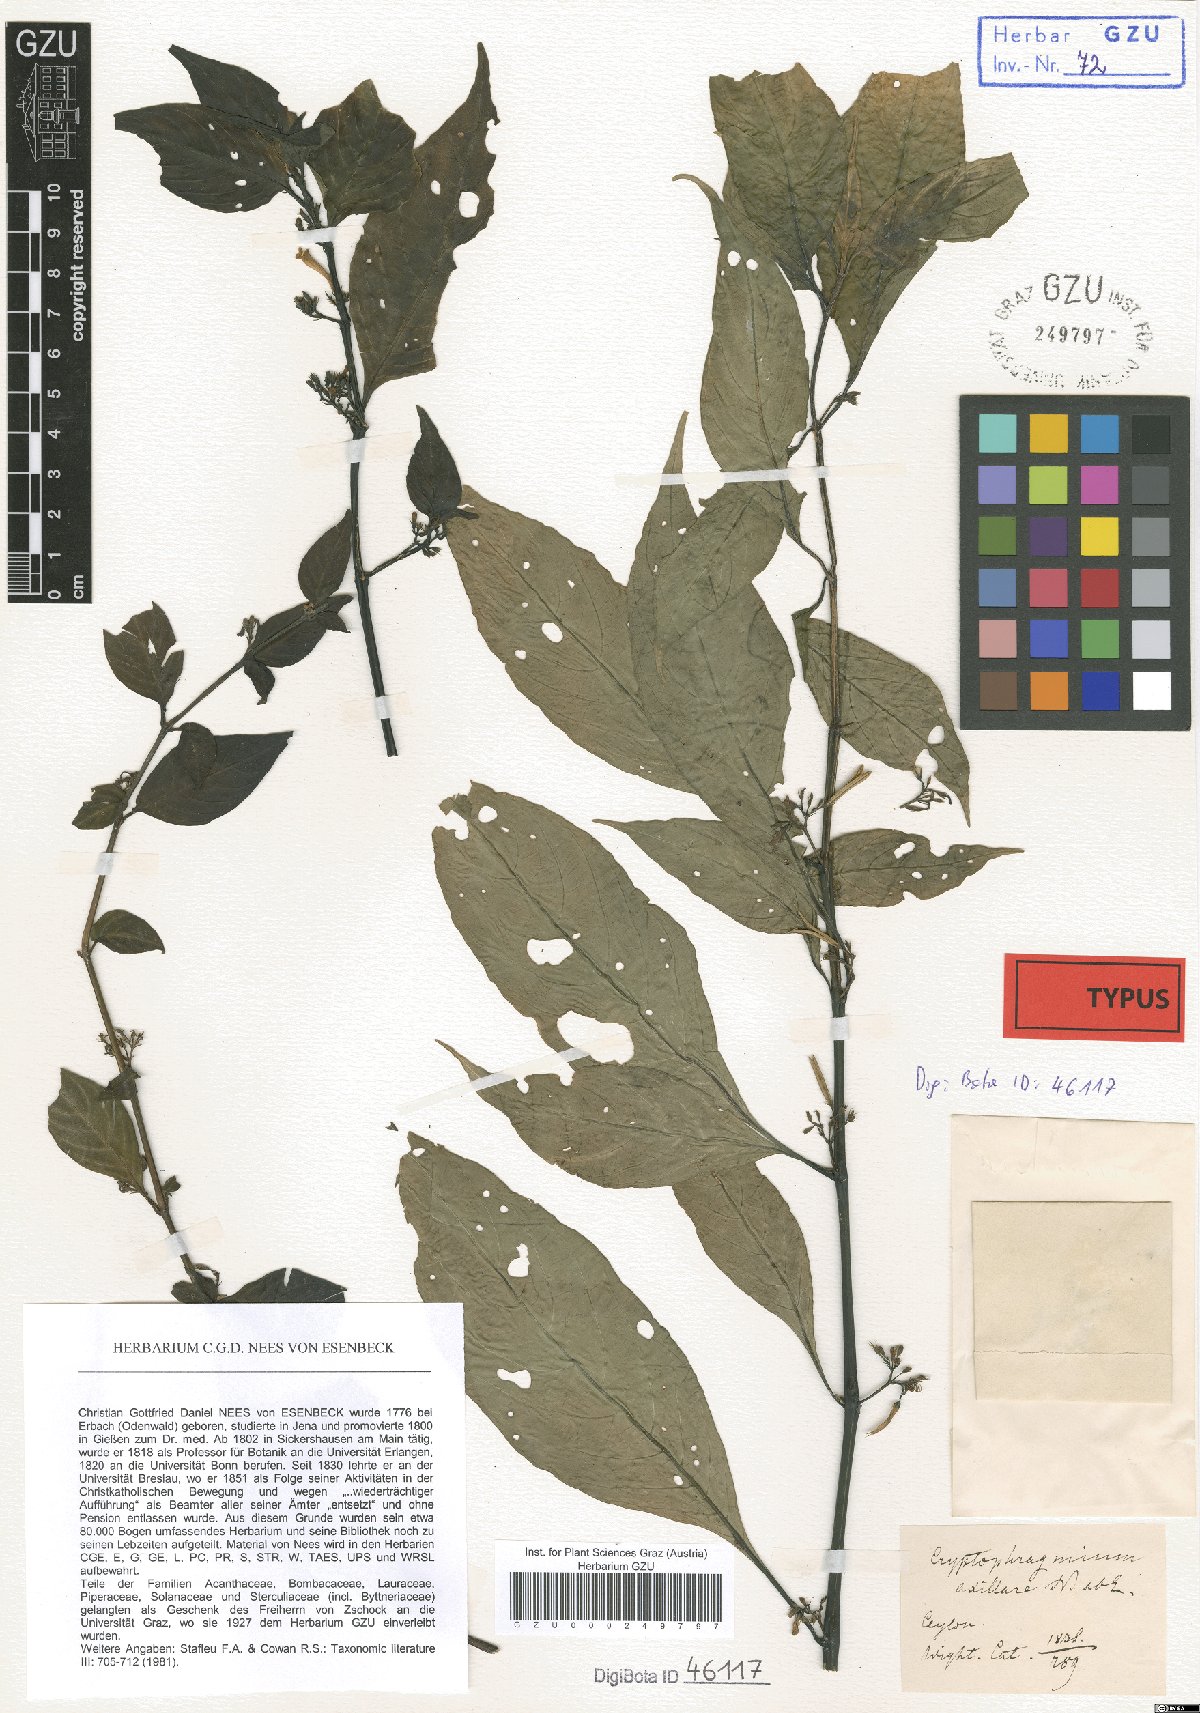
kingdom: Plantae
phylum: Tracheophyta
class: Magnoliopsida
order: Lamiales
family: Acanthaceae
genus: Hygrophila
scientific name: Hygrophila corymbosa
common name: Starhorn
